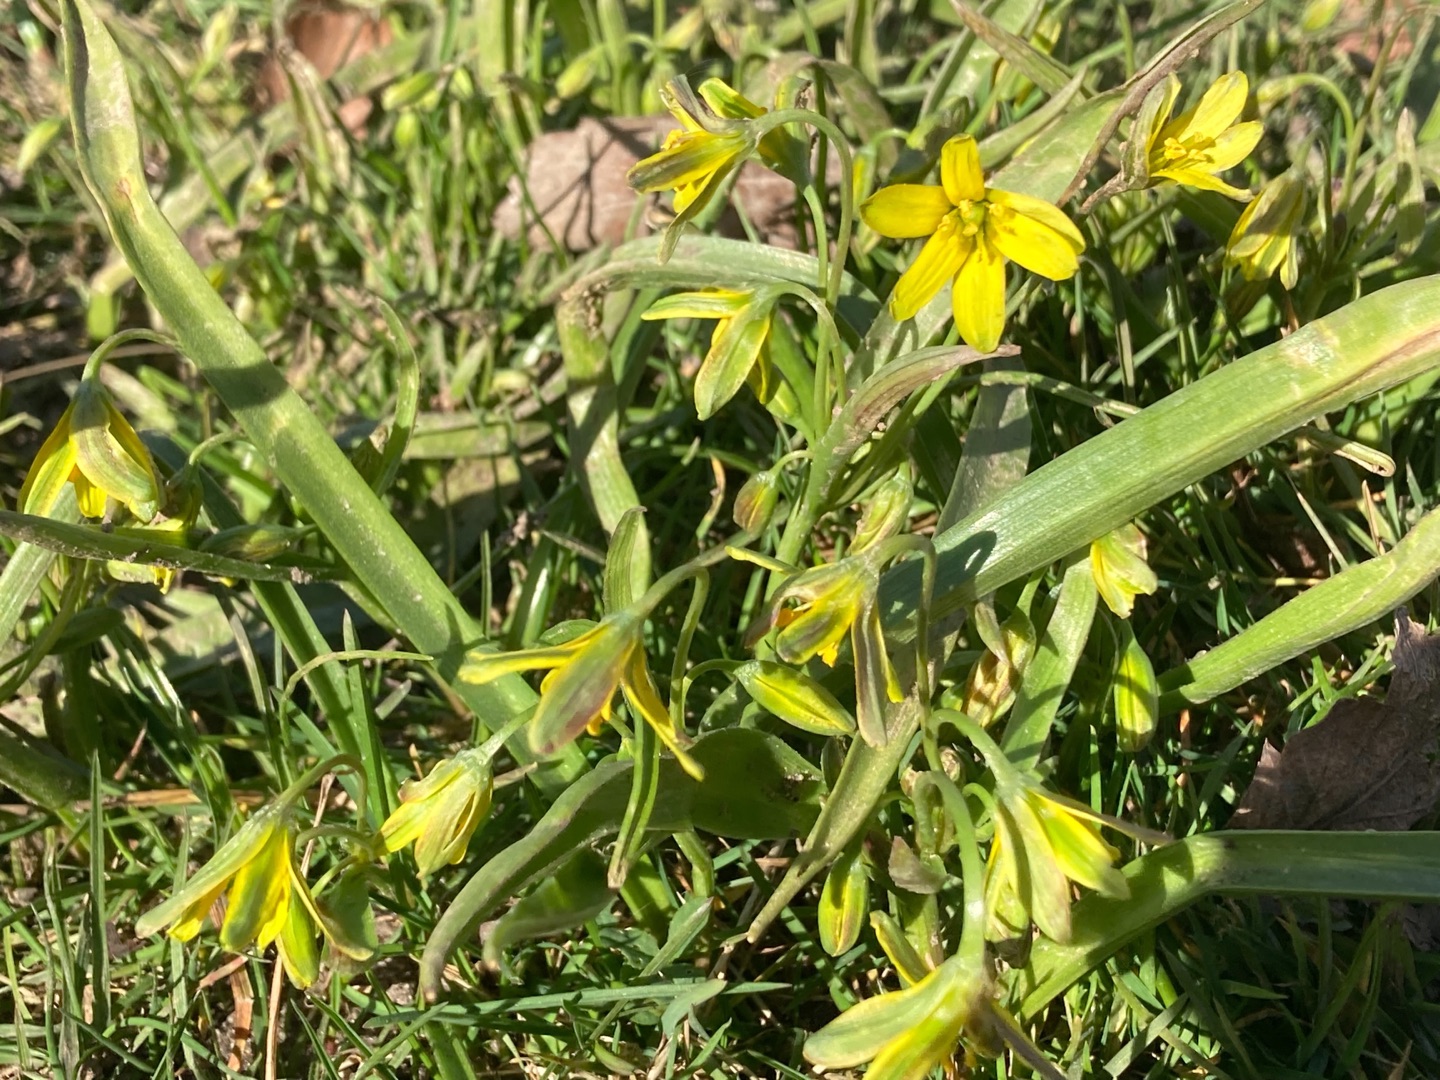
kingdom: Plantae
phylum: Tracheophyta
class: Liliopsida
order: Liliales
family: Liliaceae
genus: Gagea
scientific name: Gagea lutea
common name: Almindelig guldstjerne
